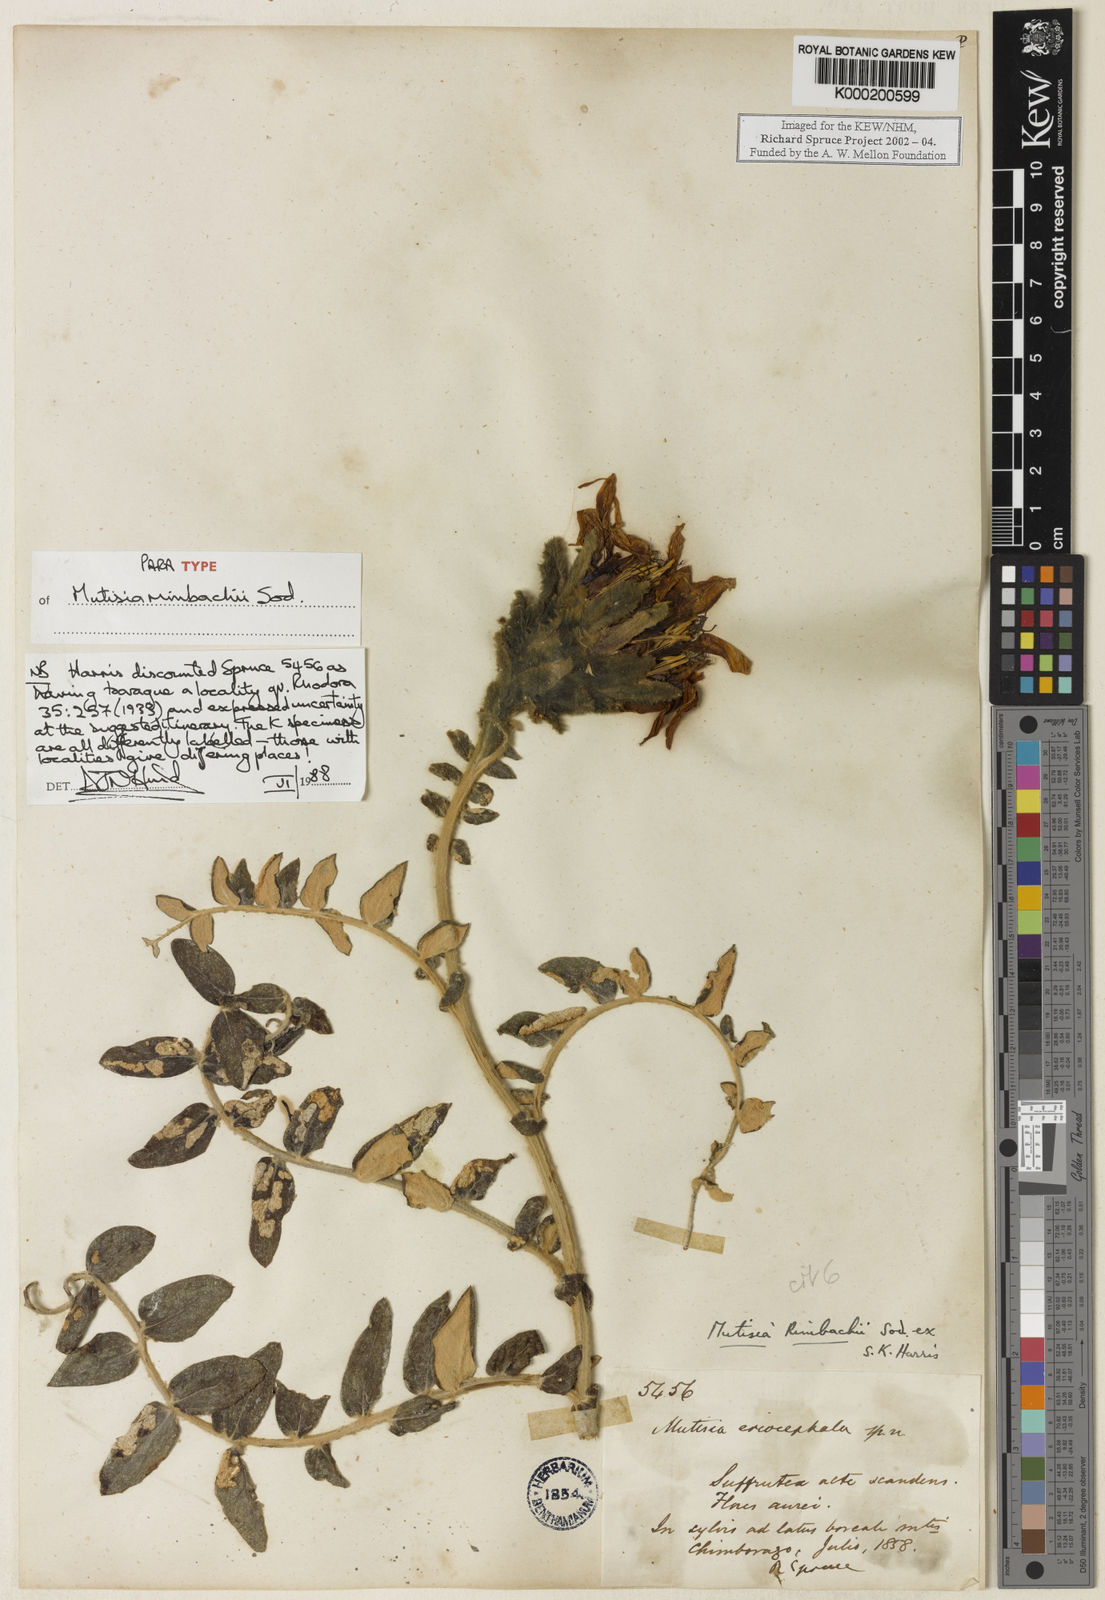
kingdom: Plantae
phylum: Tracheophyta
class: Magnoliopsida
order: Asterales
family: Asteraceae
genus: Mutisia
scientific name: Mutisia
